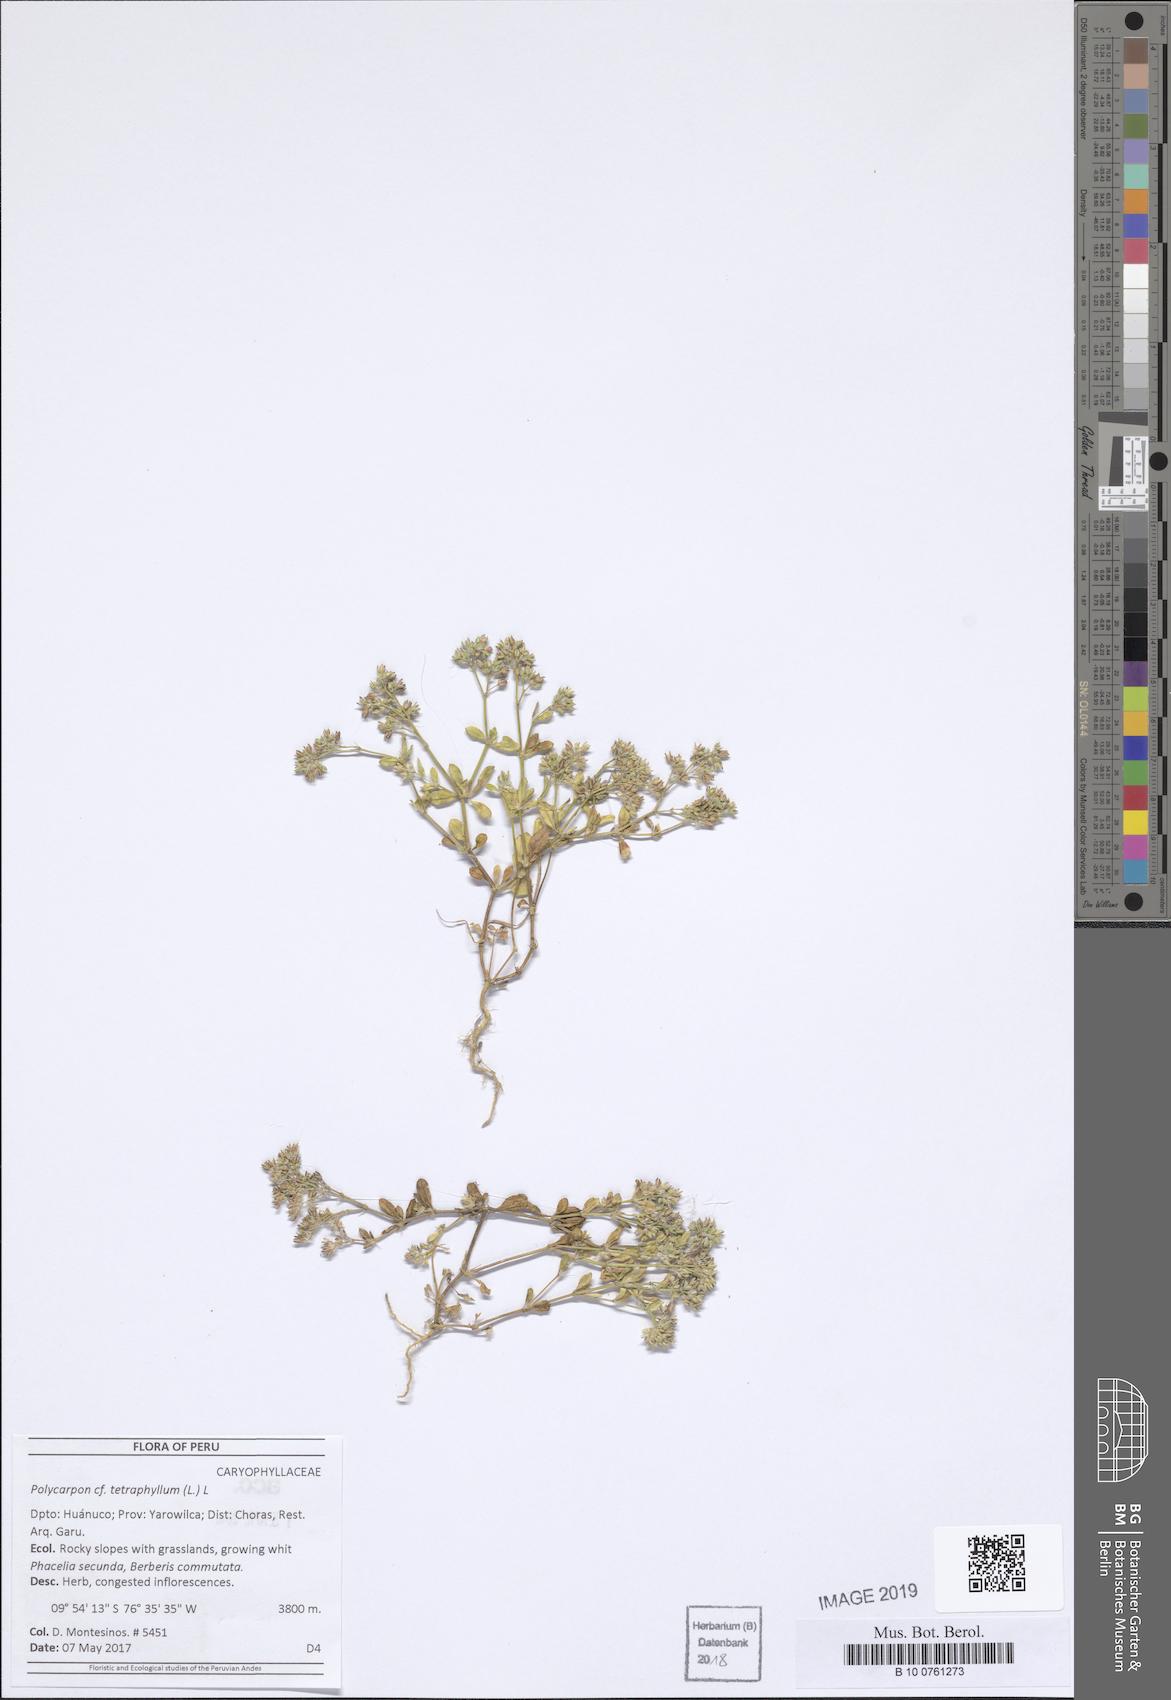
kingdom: Plantae
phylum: Tracheophyta
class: Magnoliopsida
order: Caryophyllales
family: Caryophyllaceae
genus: Polycarpon
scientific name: Polycarpon tetraphyllum
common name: Four-leaved all-seed
